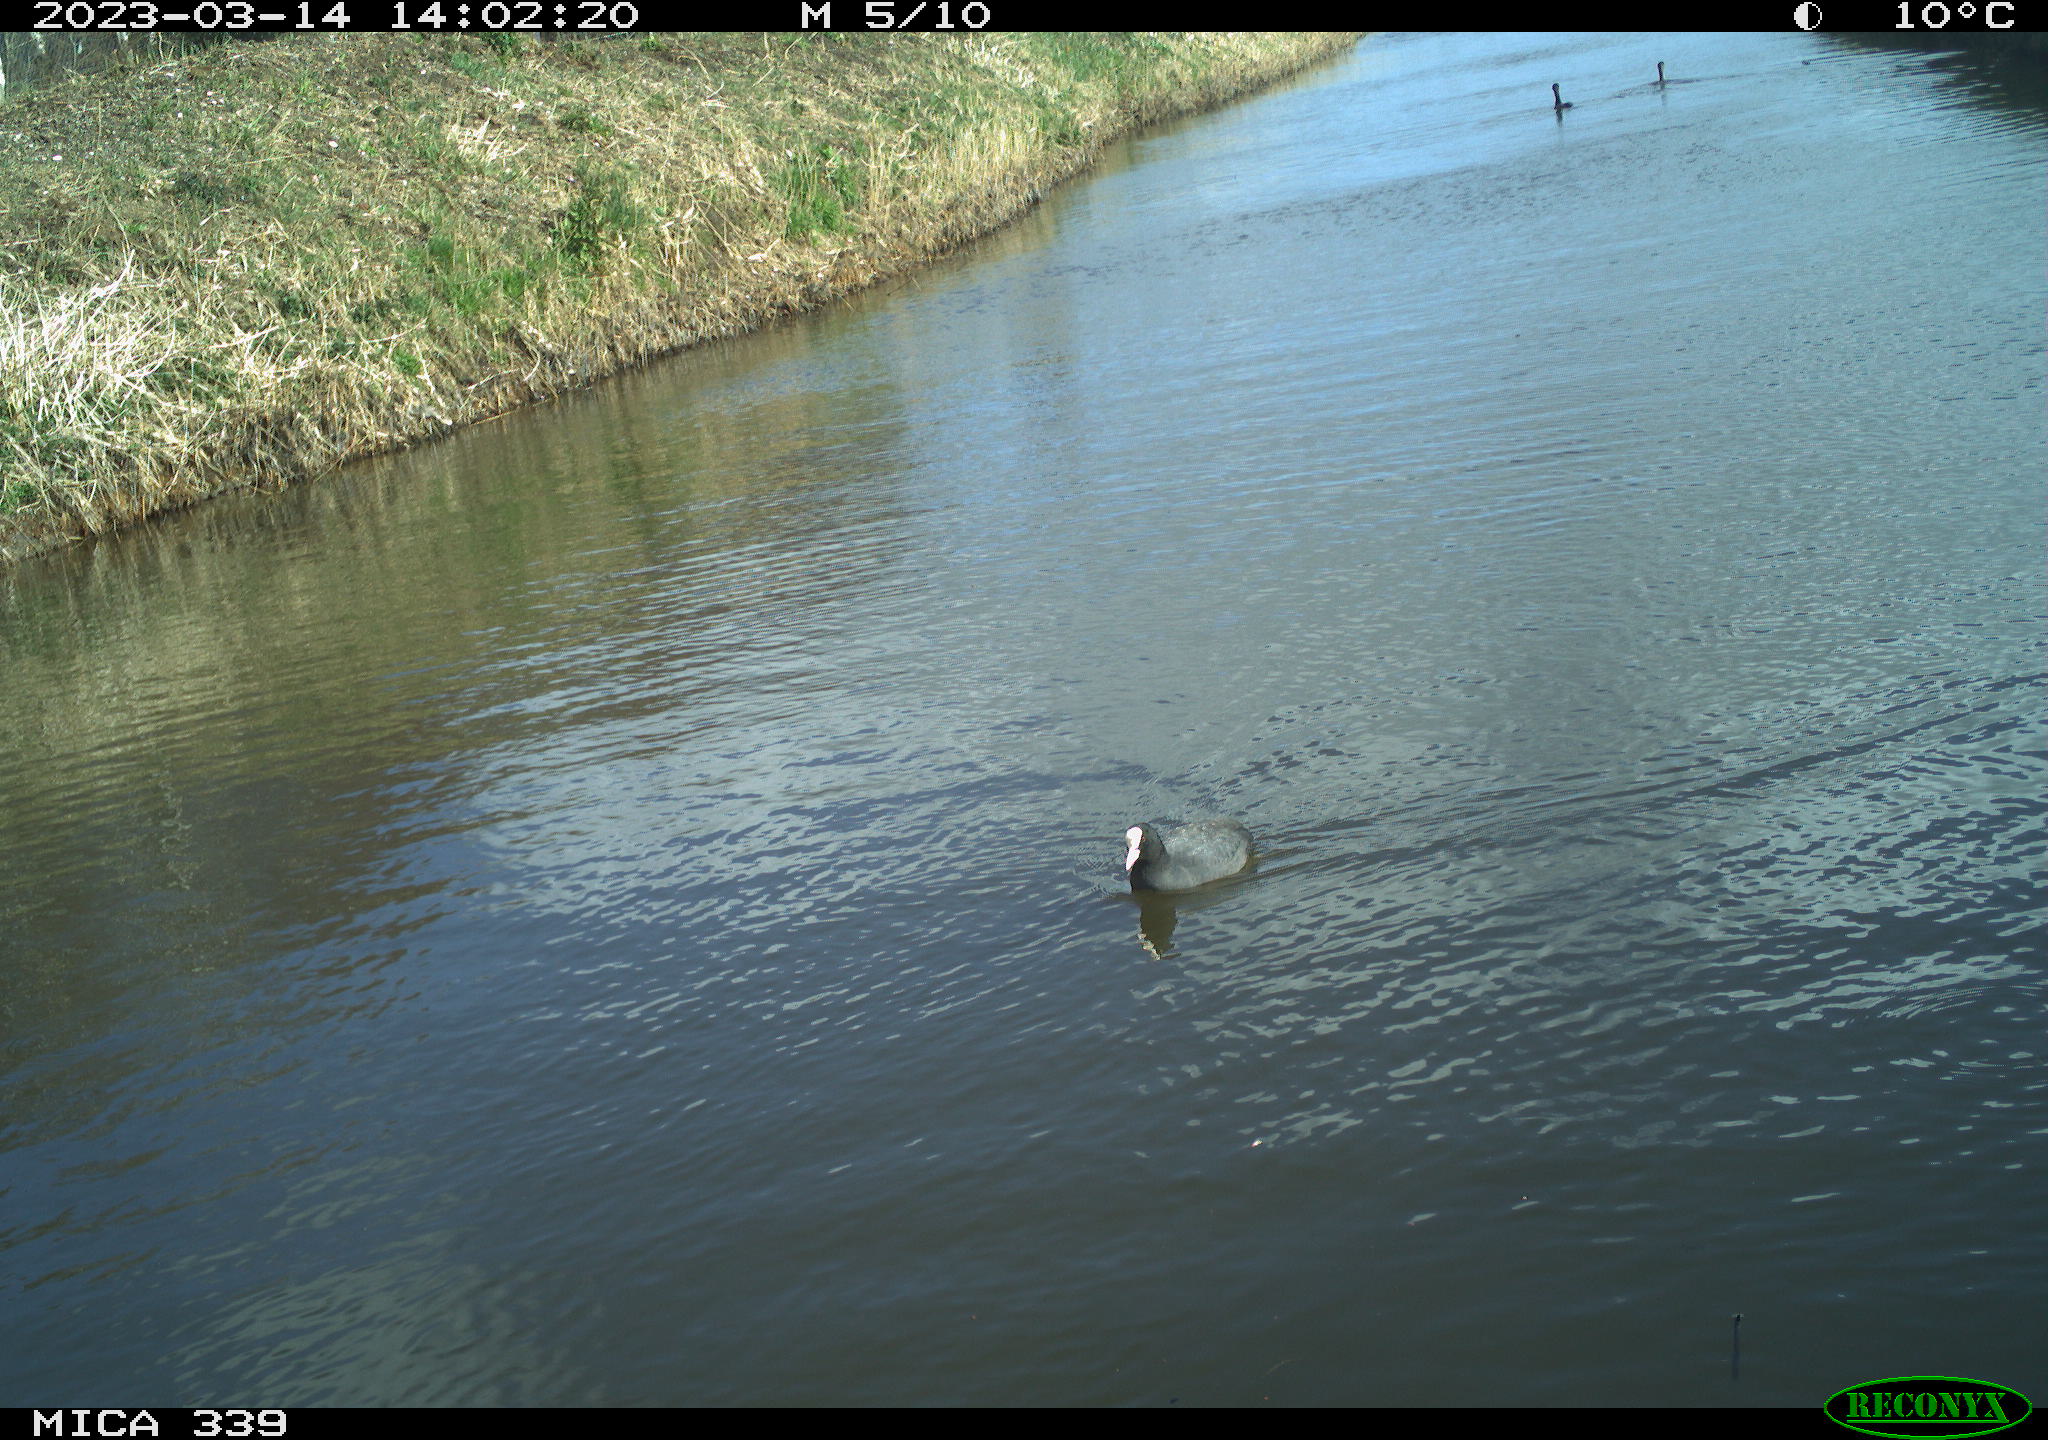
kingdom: Animalia
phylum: Chordata
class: Aves
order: Suliformes
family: Phalacrocoracidae
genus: Phalacrocorax
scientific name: Phalacrocorax carbo
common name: Great cormorant
